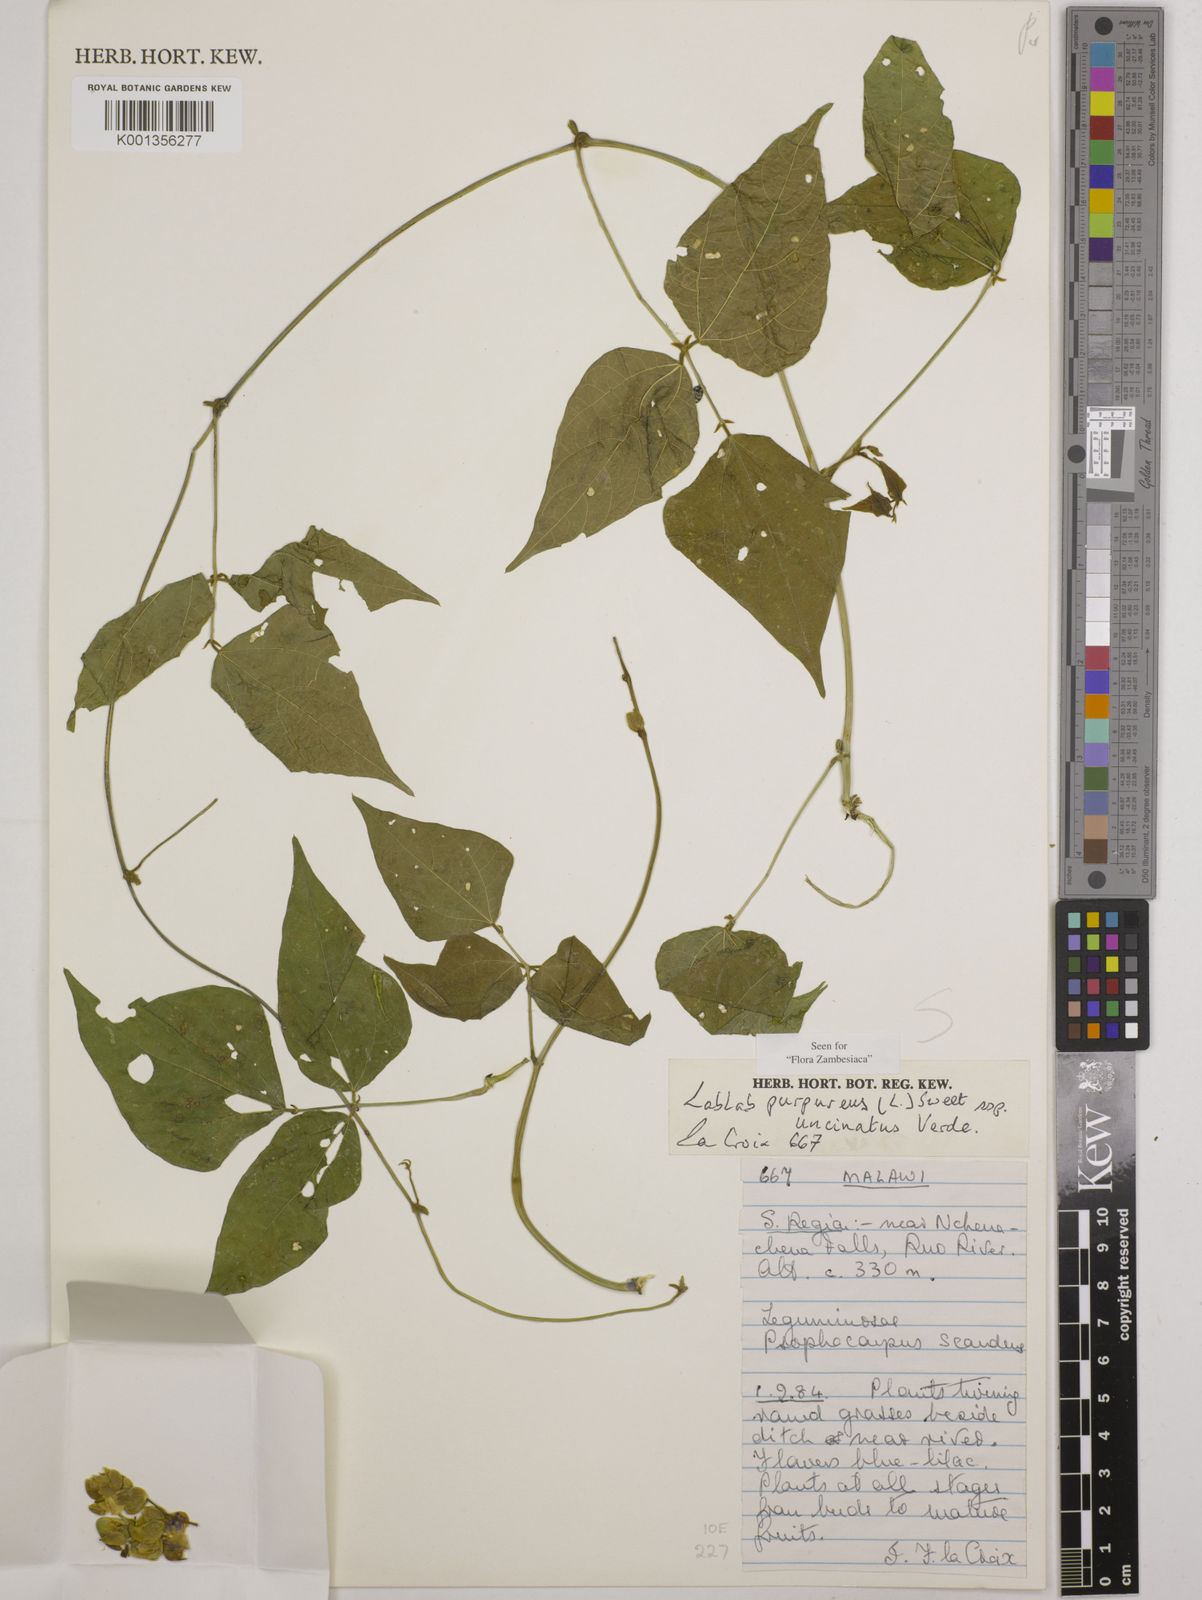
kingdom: Plantae
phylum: Tracheophyta
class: Magnoliopsida
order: Fabales
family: Fabaceae
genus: Lablab
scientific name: Lablab
